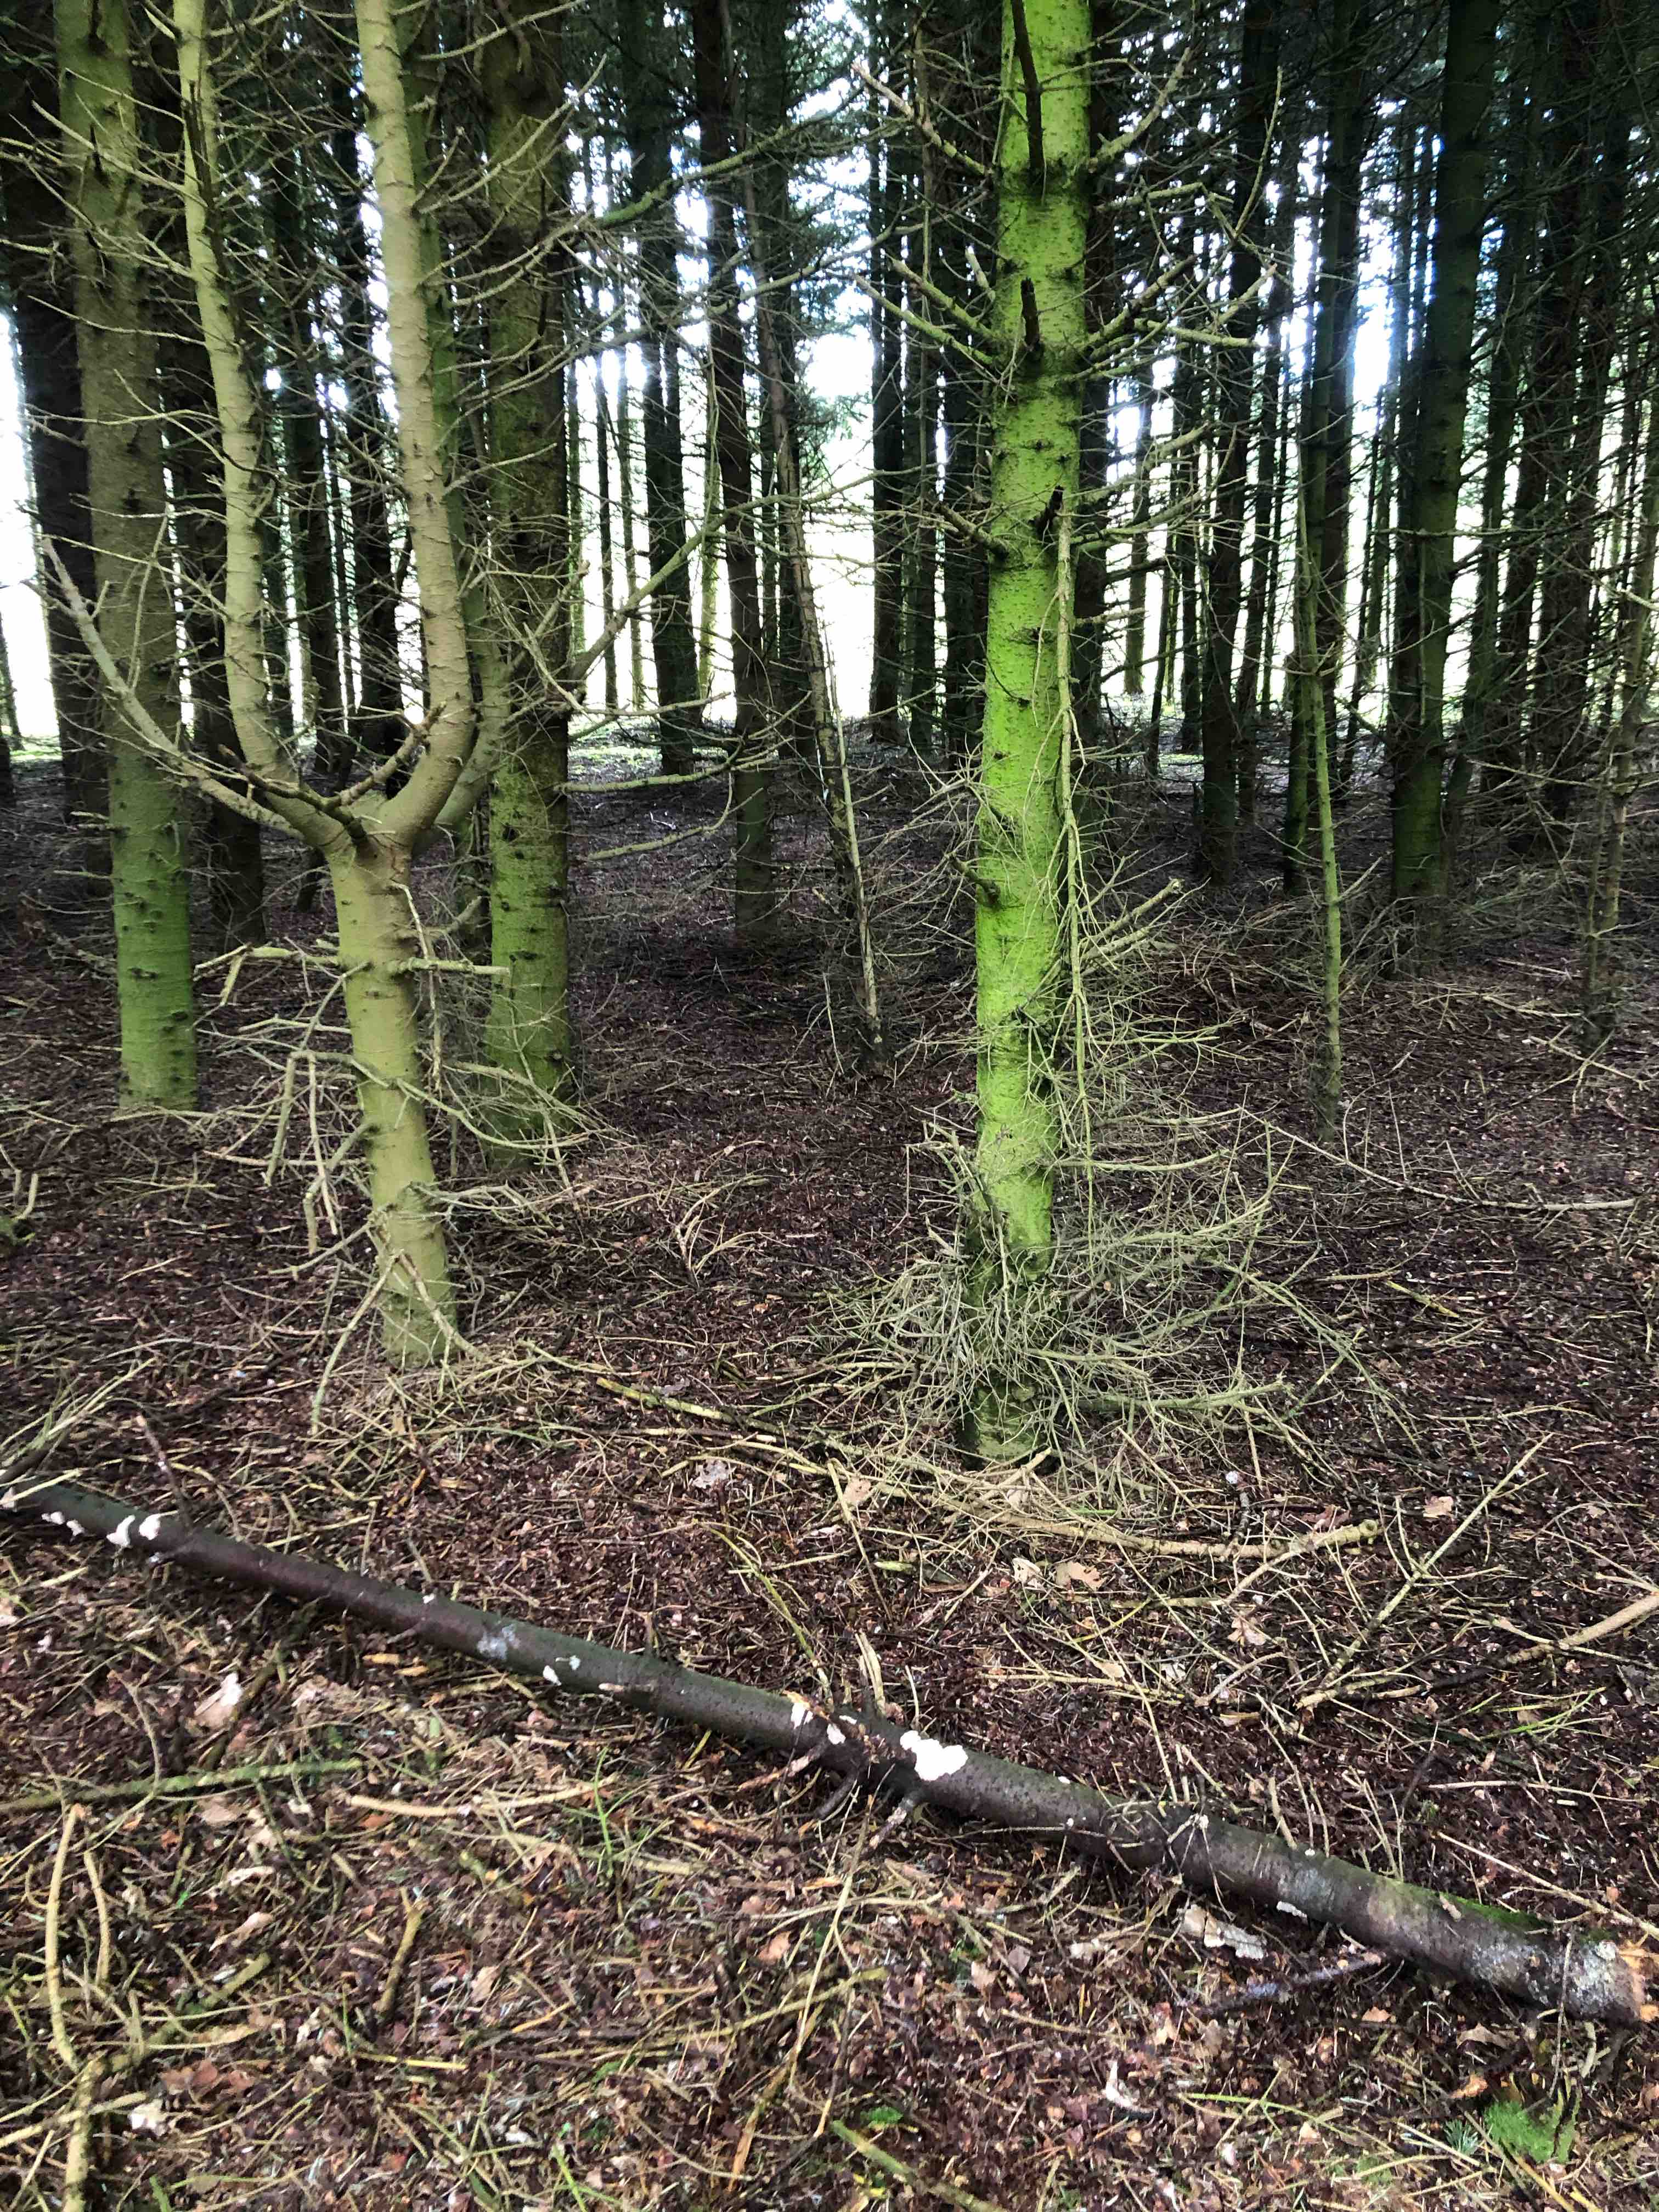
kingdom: Fungi
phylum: Basidiomycota
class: Agaricomycetes
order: Corticiales
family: Corticiaceae
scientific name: Corticiaceae
